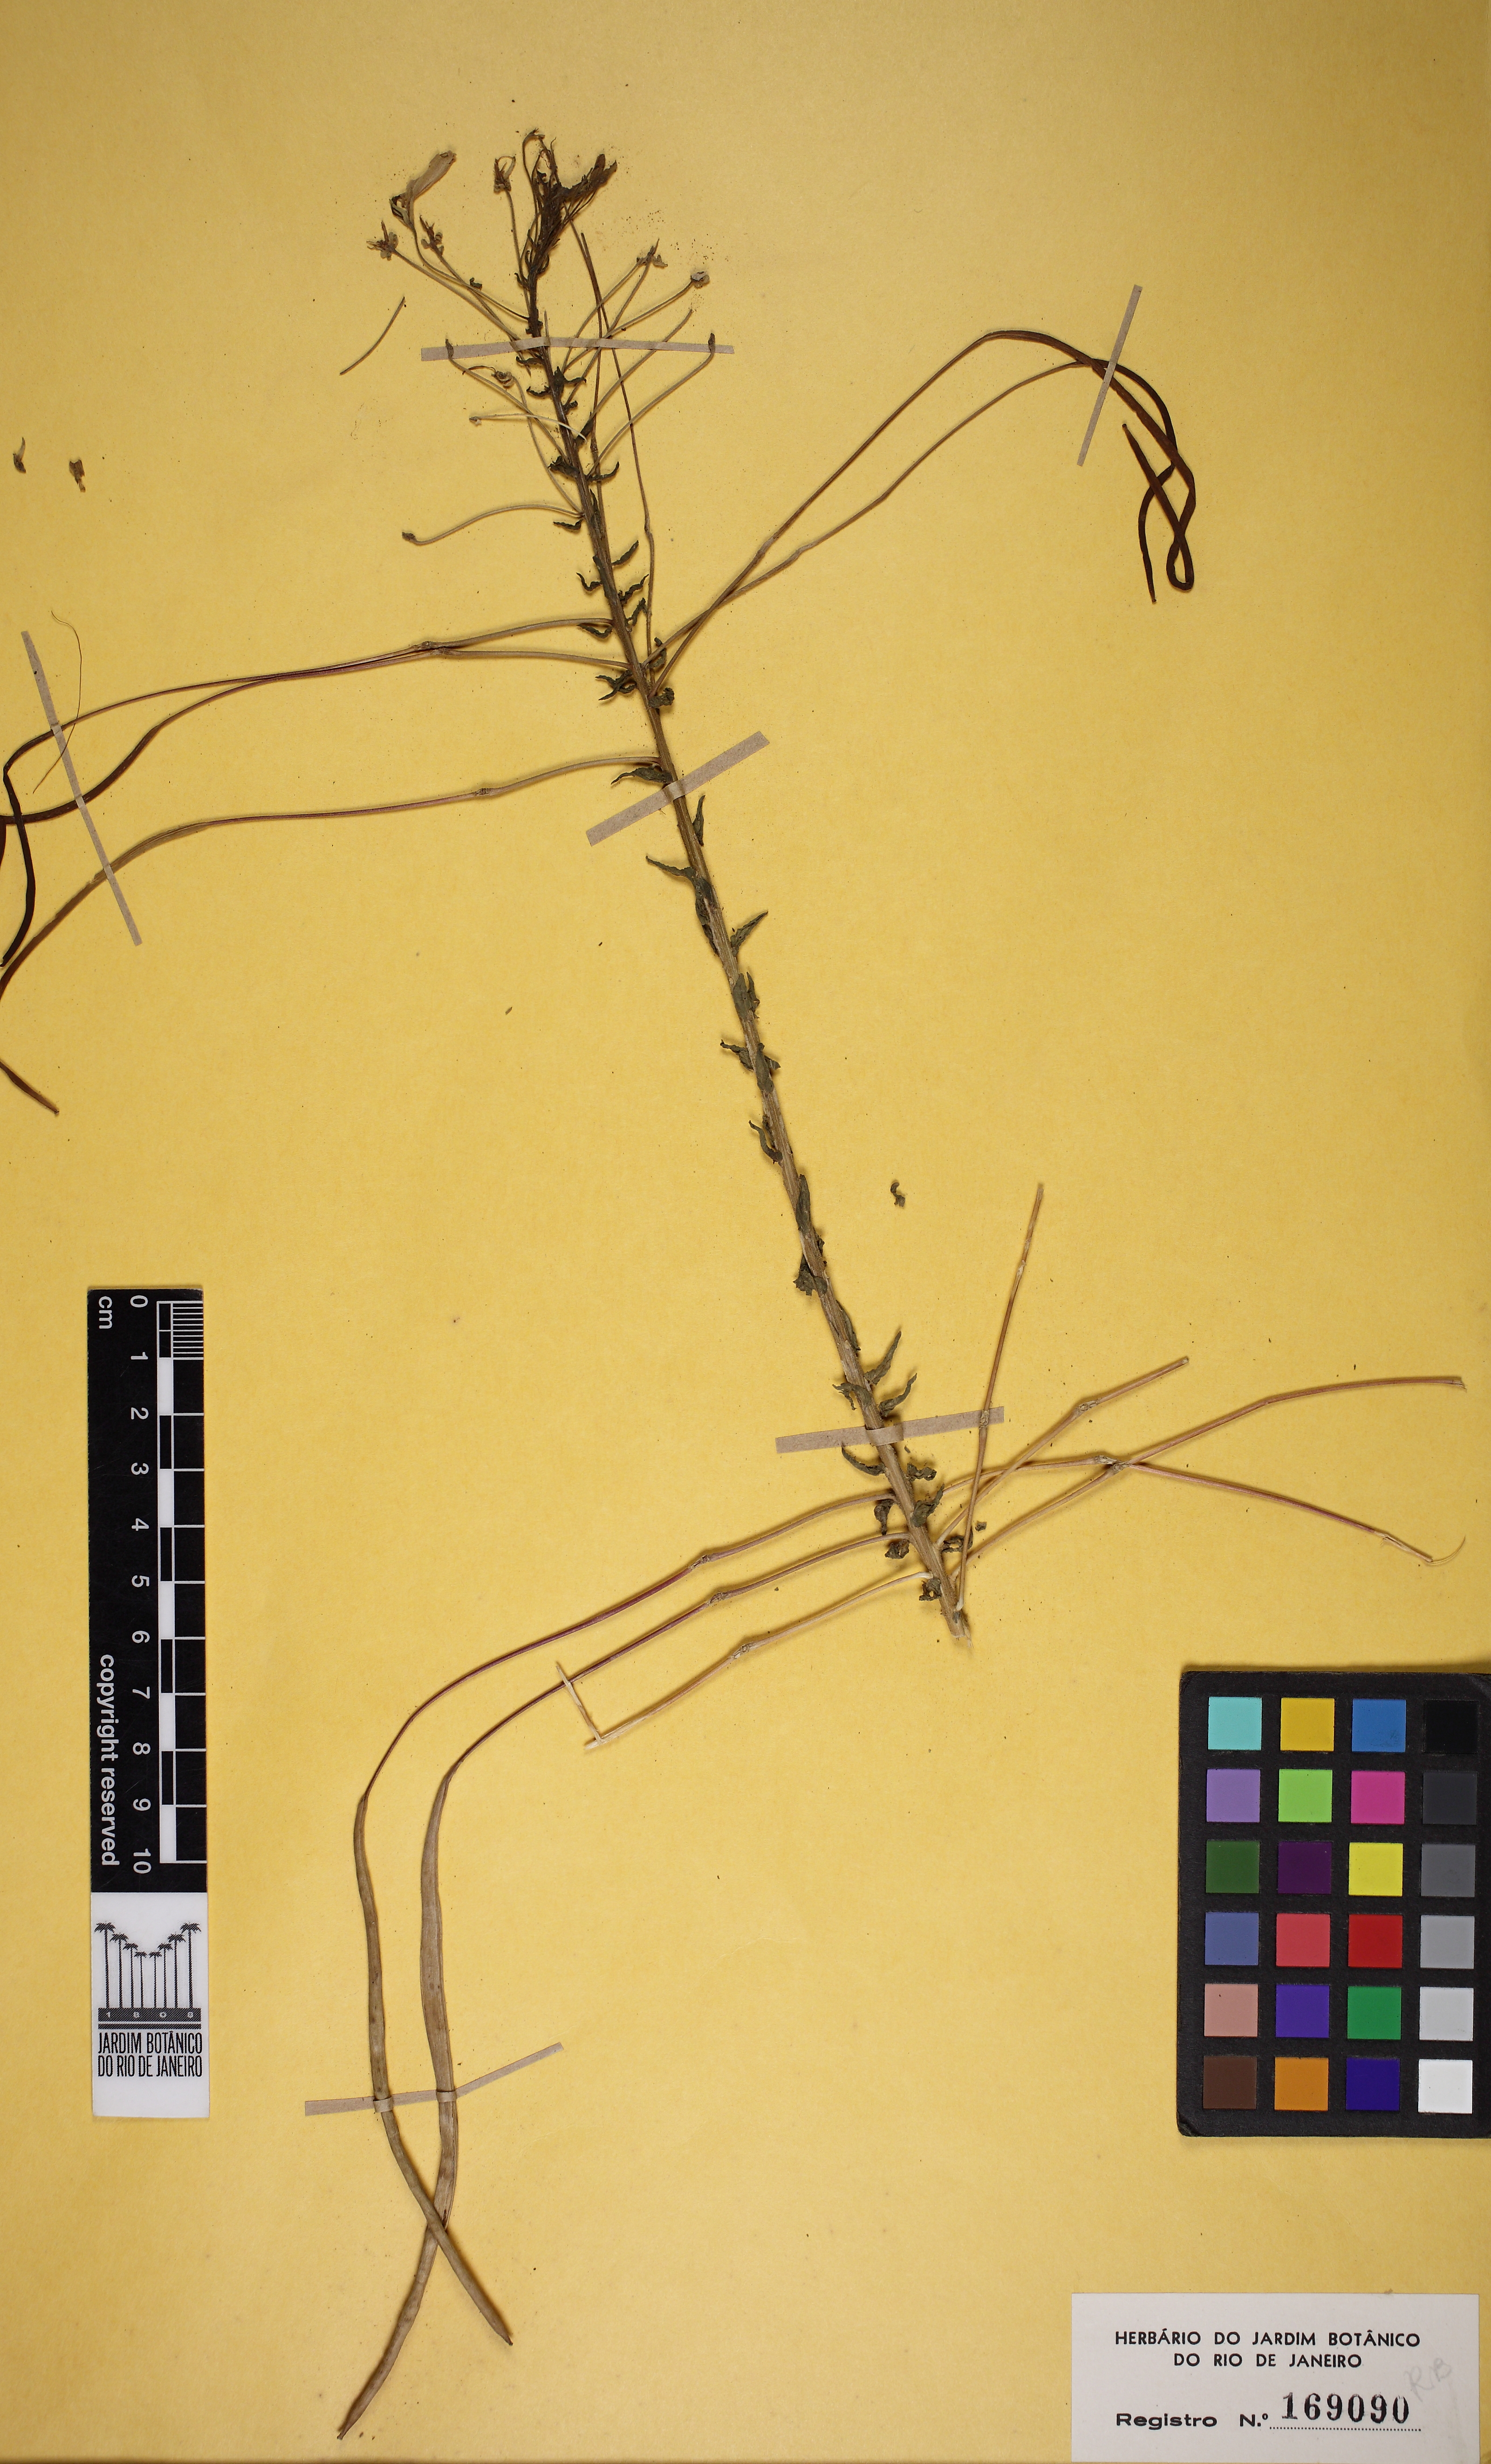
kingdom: Plantae
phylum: Tracheophyta
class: Magnoliopsida
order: Brassicales
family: Cleomaceae
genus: Tarenaya
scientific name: Tarenaya spinosa
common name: Spiny spiderflower
